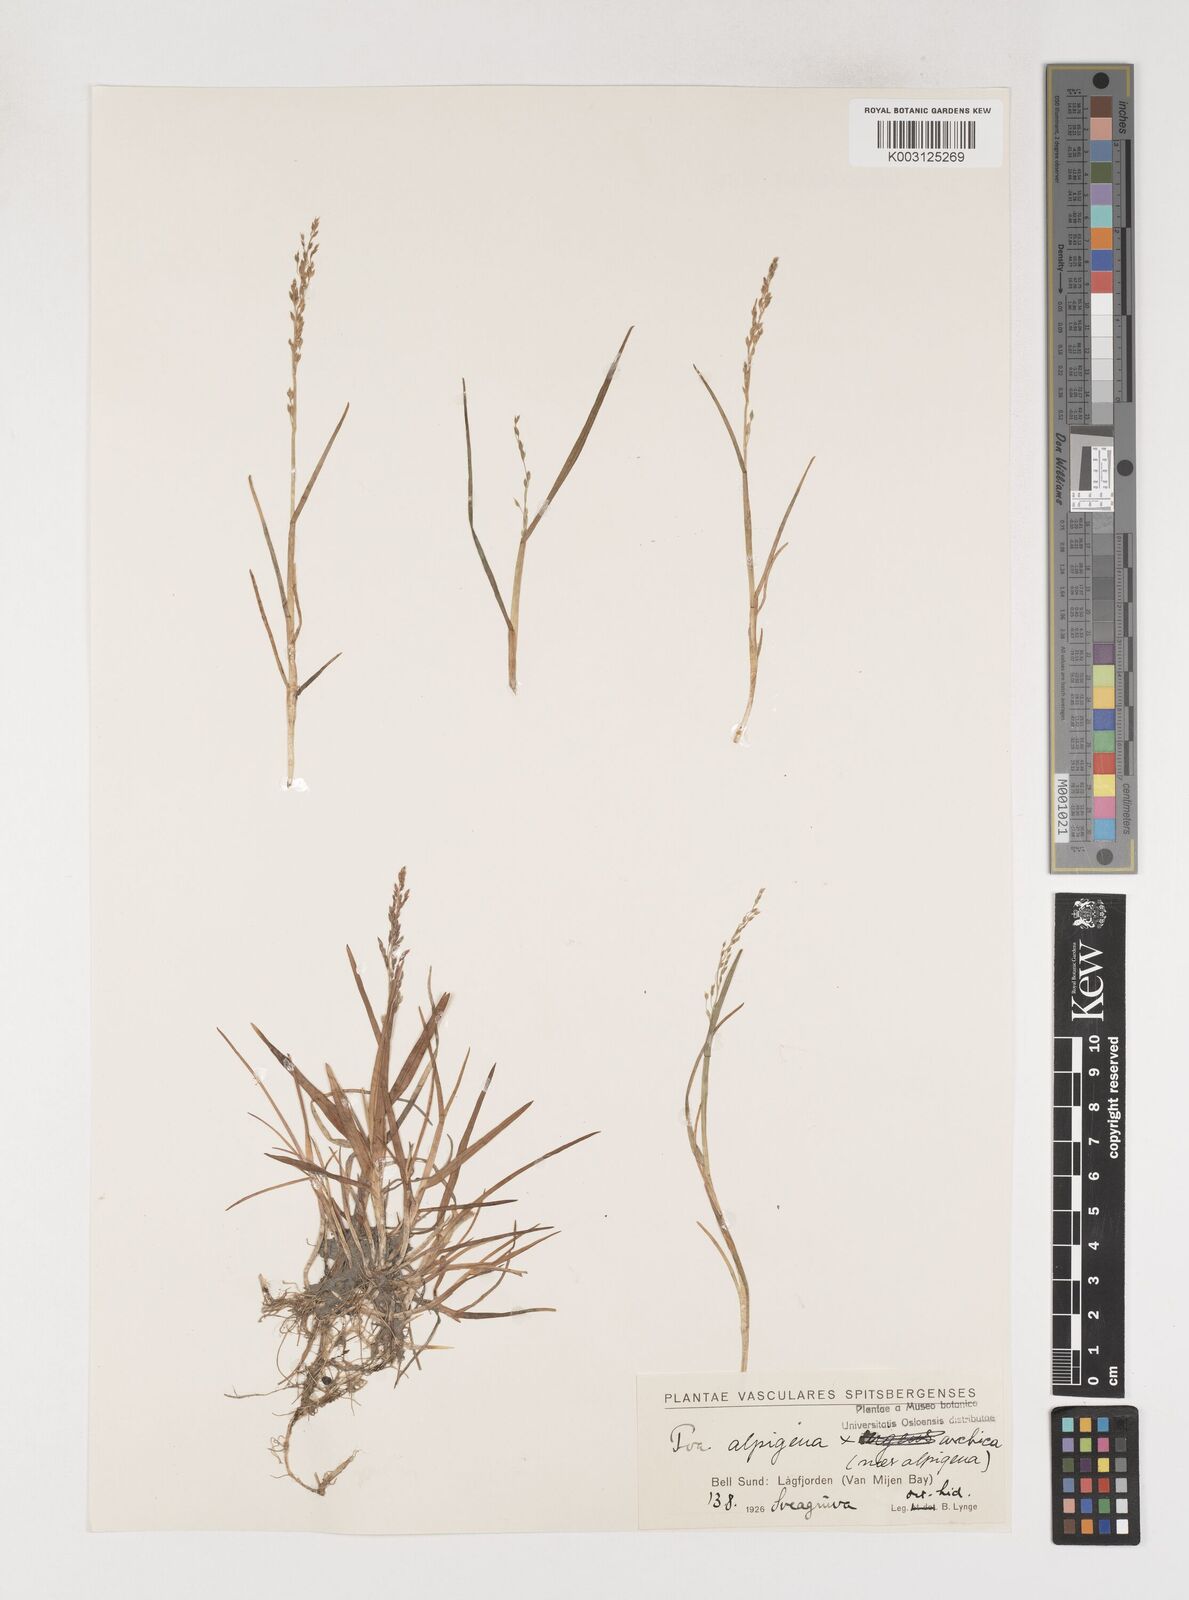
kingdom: Plantae
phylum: Tracheophyta
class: Liliopsida
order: Poales
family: Poaceae
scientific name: Poaceae
